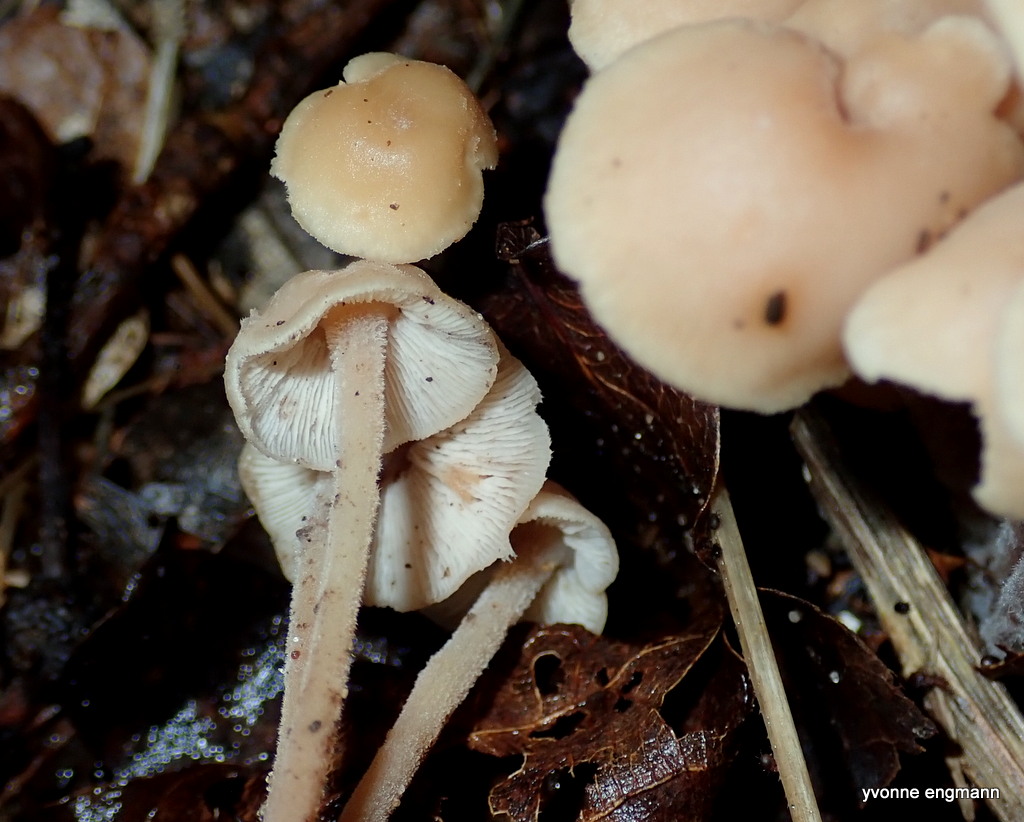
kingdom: Fungi
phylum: Basidiomycota
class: Agaricomycetes
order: Agaricales
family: Omphalotaceae
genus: Collybiopsis
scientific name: Collybiopsis confluens
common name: knippe-fladhat
